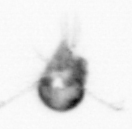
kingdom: Animalia
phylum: Arthropoda
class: Copepoda
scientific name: Copepoda
